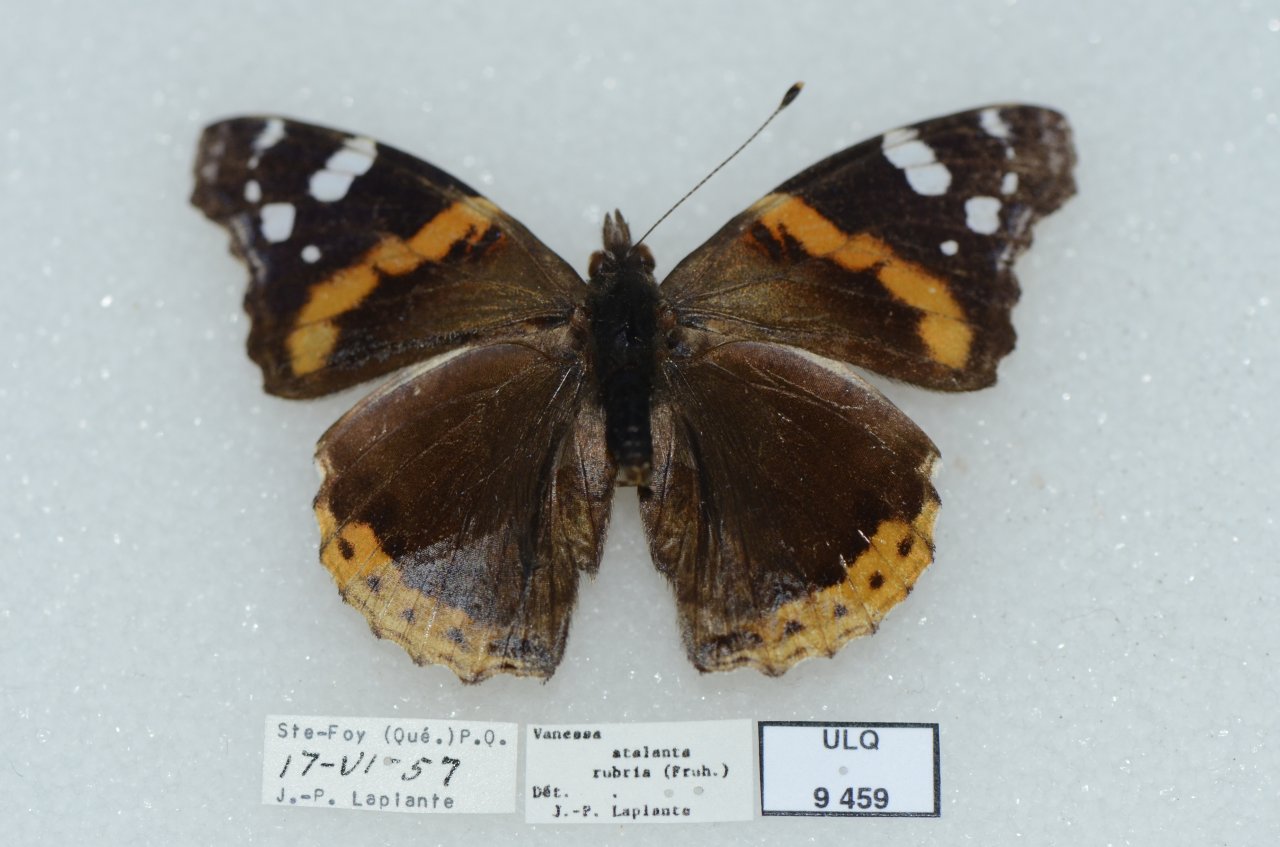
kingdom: Animalia
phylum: Arthropoda
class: Insecta
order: Lepidoptera
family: Nymphalidae
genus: Vanessa
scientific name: Vanessa atalanta
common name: Red Admiral
